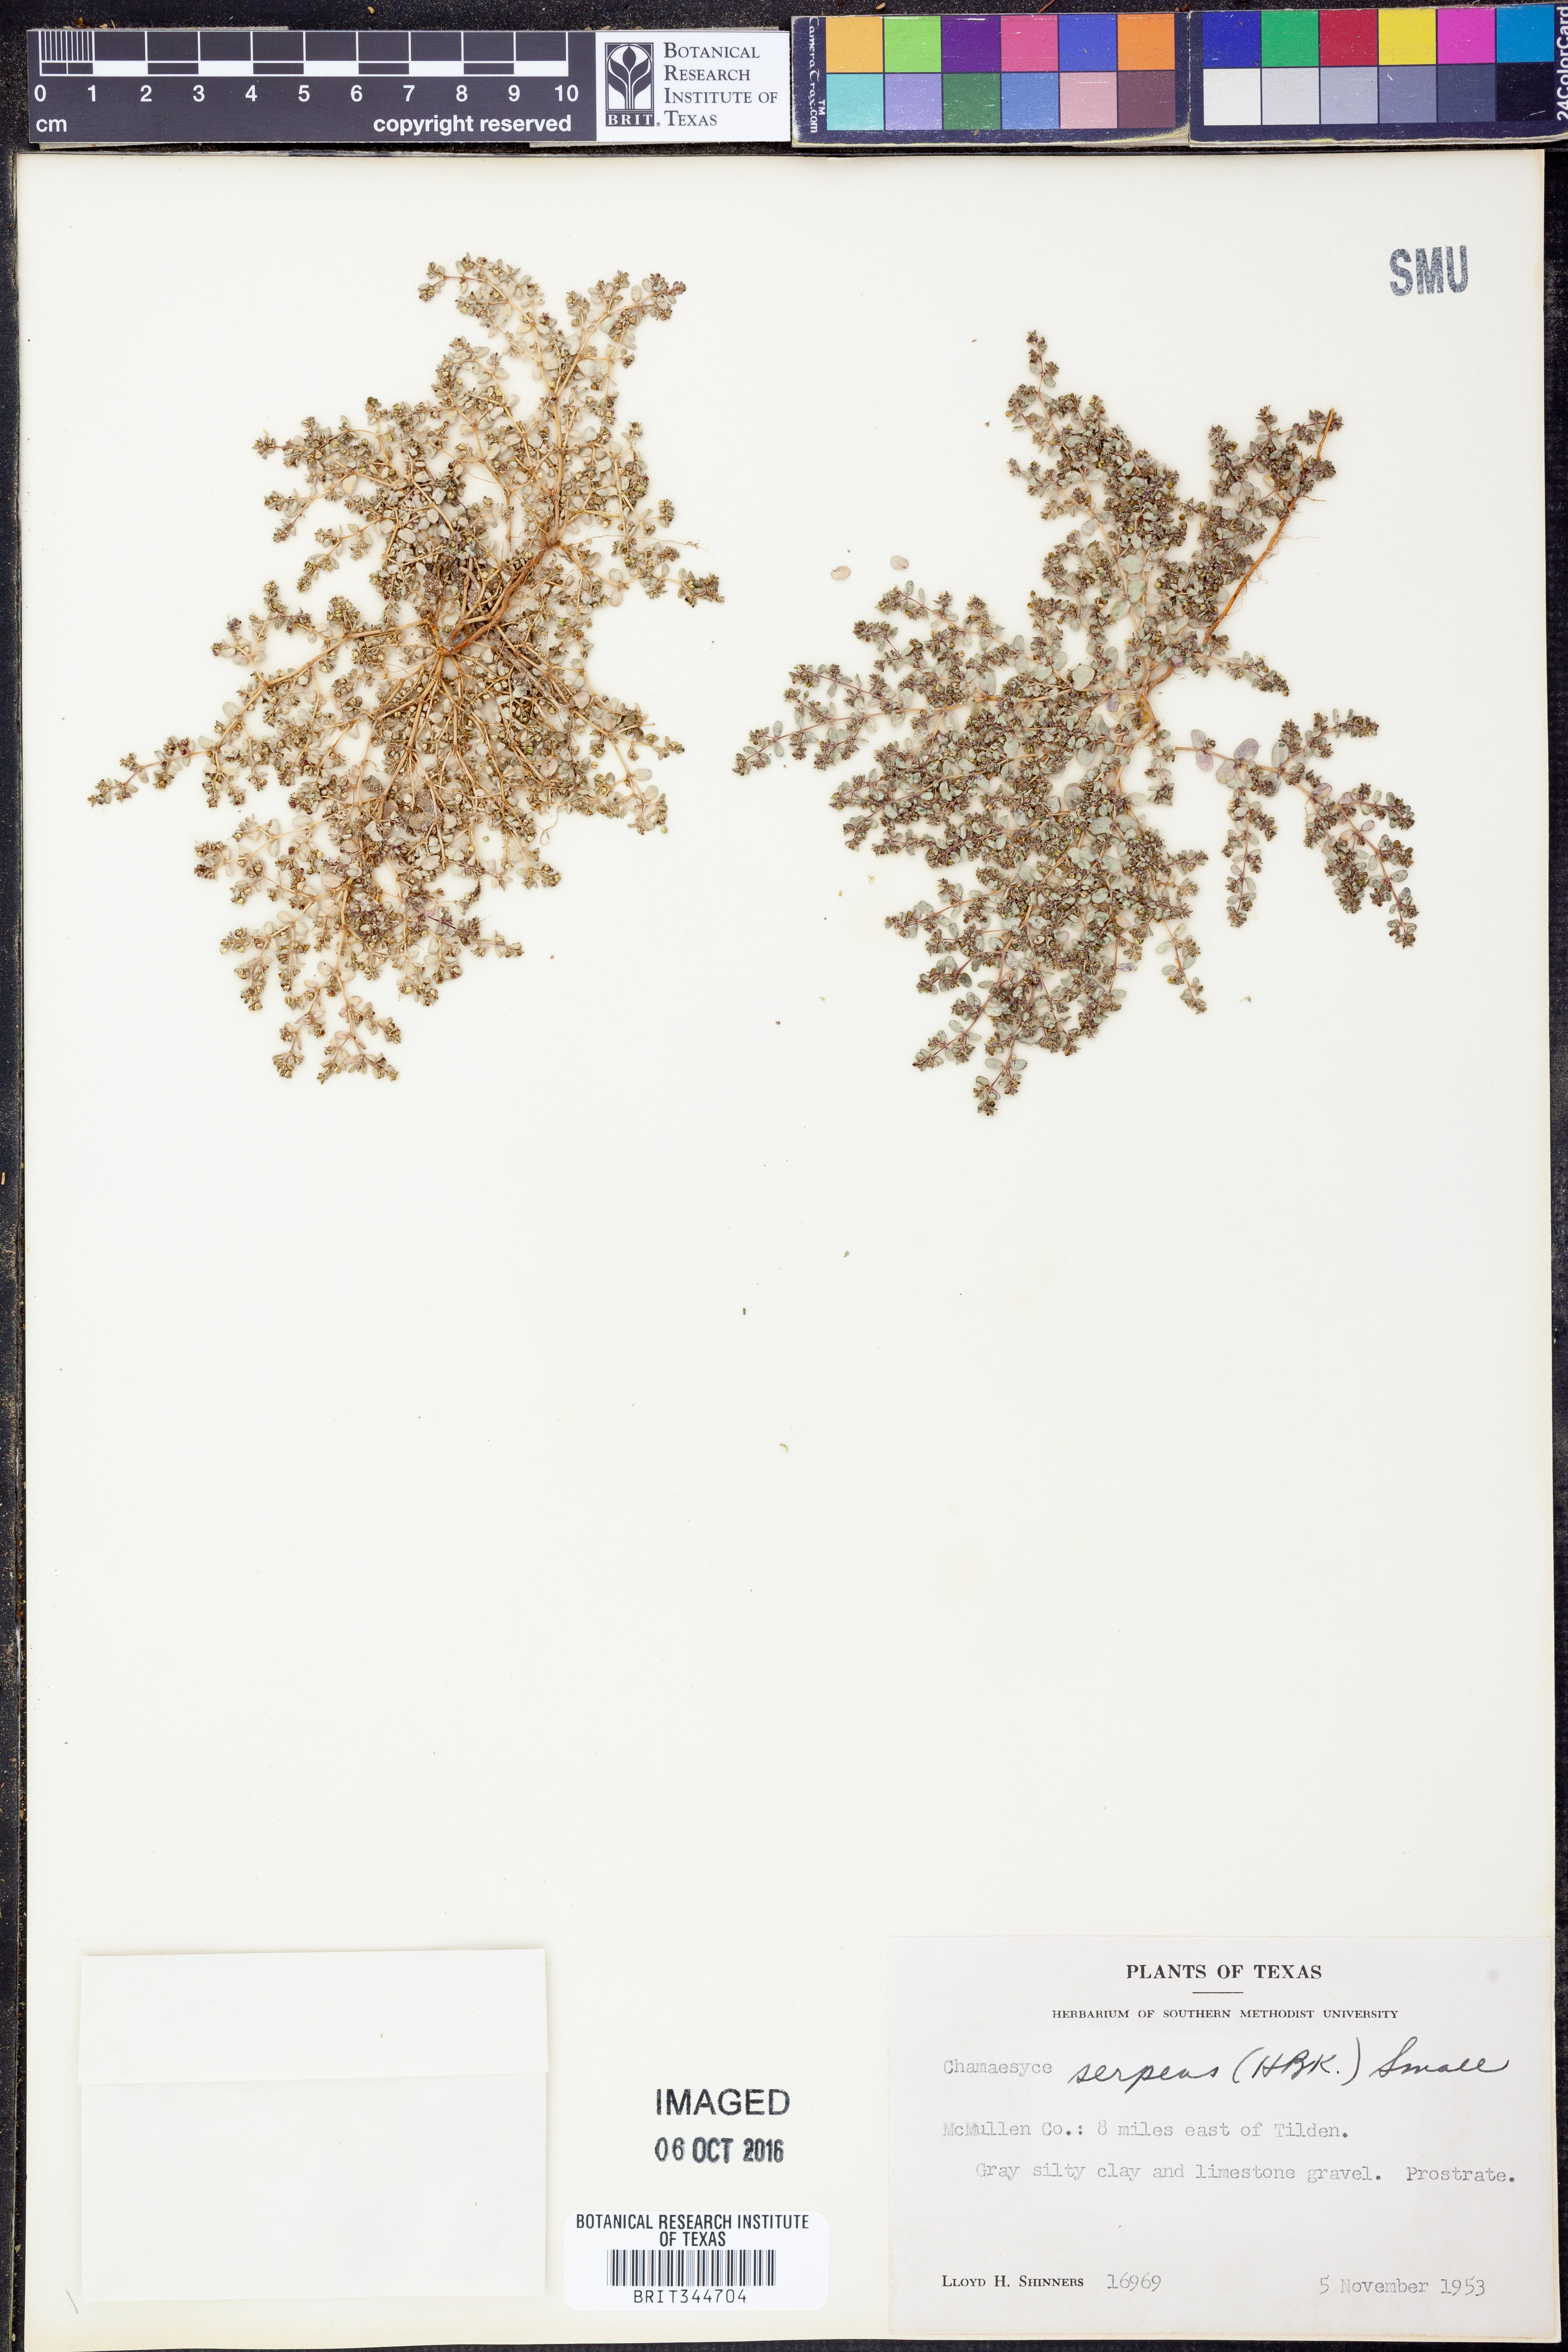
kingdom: Plantae
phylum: Tracheophyta
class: Magnoliopsida
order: Malpighiales
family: Euphorbiaceae
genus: Euphorbia
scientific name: Euphorbia serpens
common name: Matted sandmat
